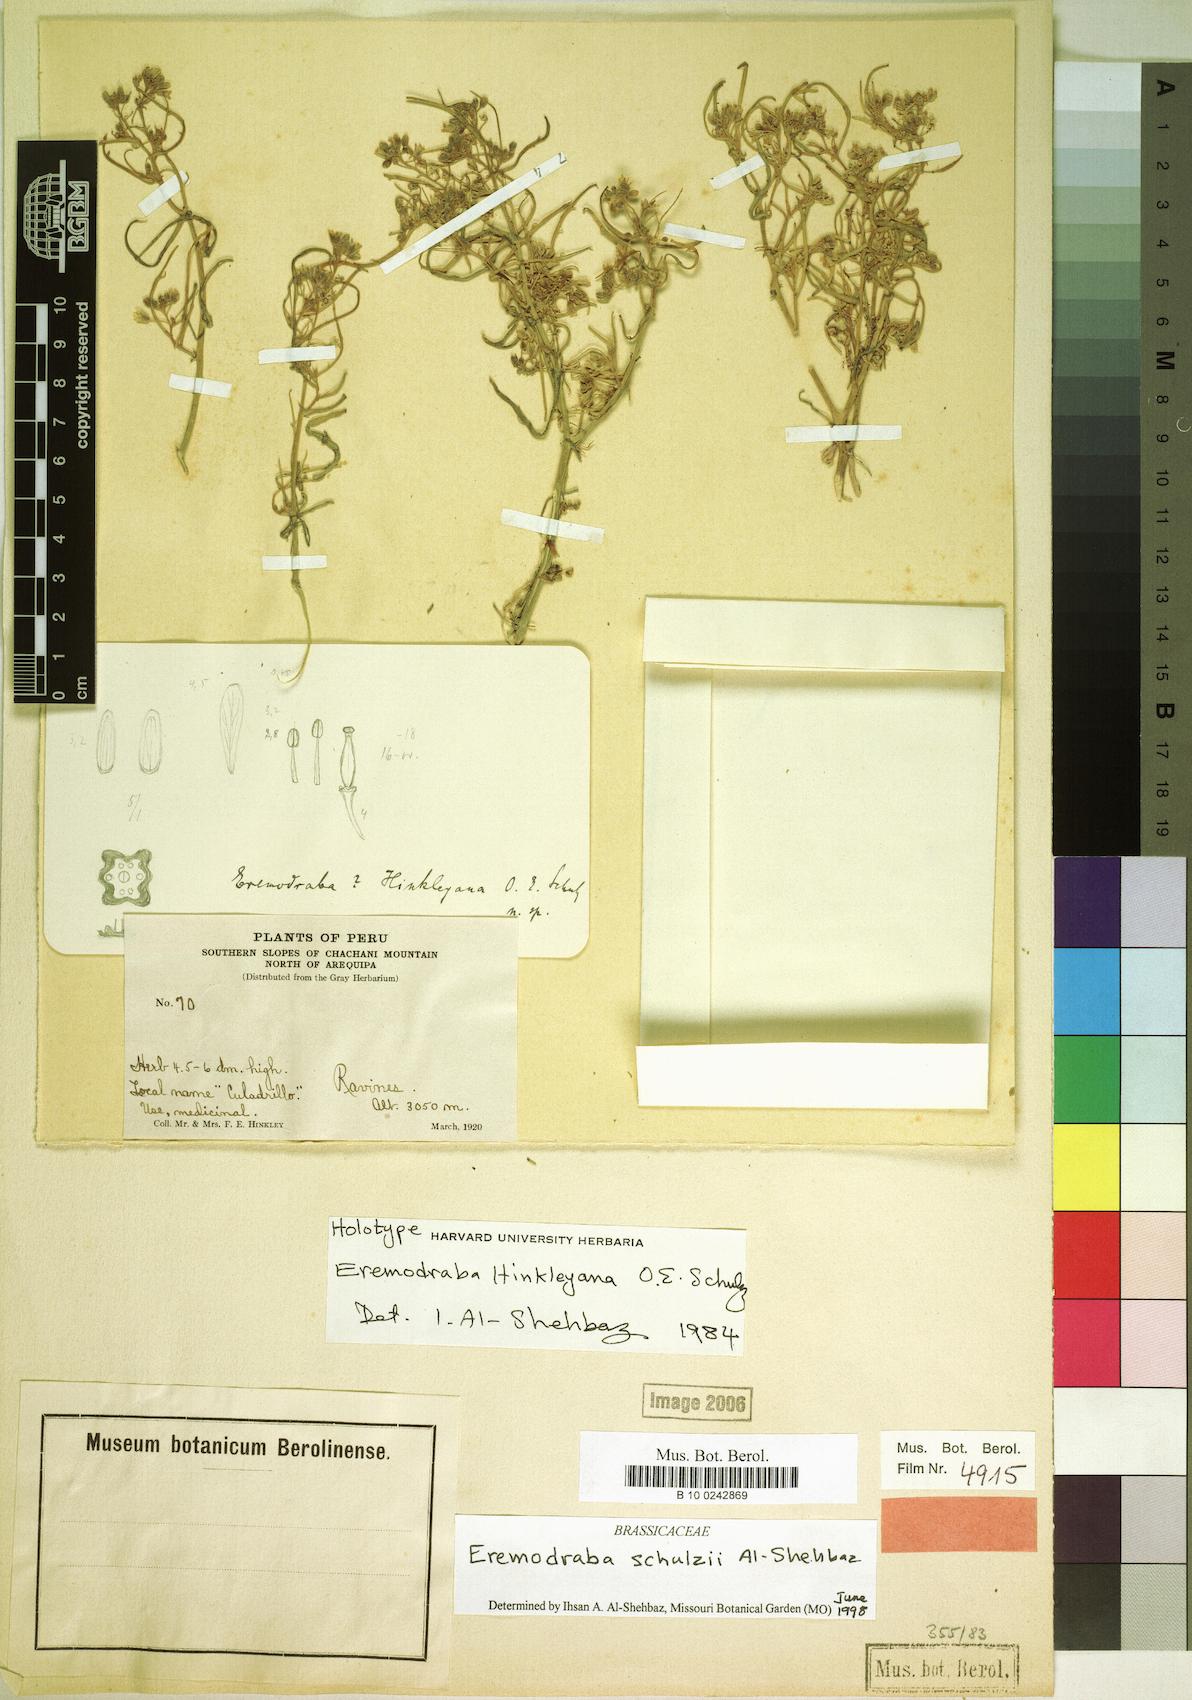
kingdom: Plantae
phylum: Tracheophyta
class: Magnoliopsida
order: Brassicales
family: Brassicaceae
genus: Neuontobotrys
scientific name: Neuontobotrys schulzii
